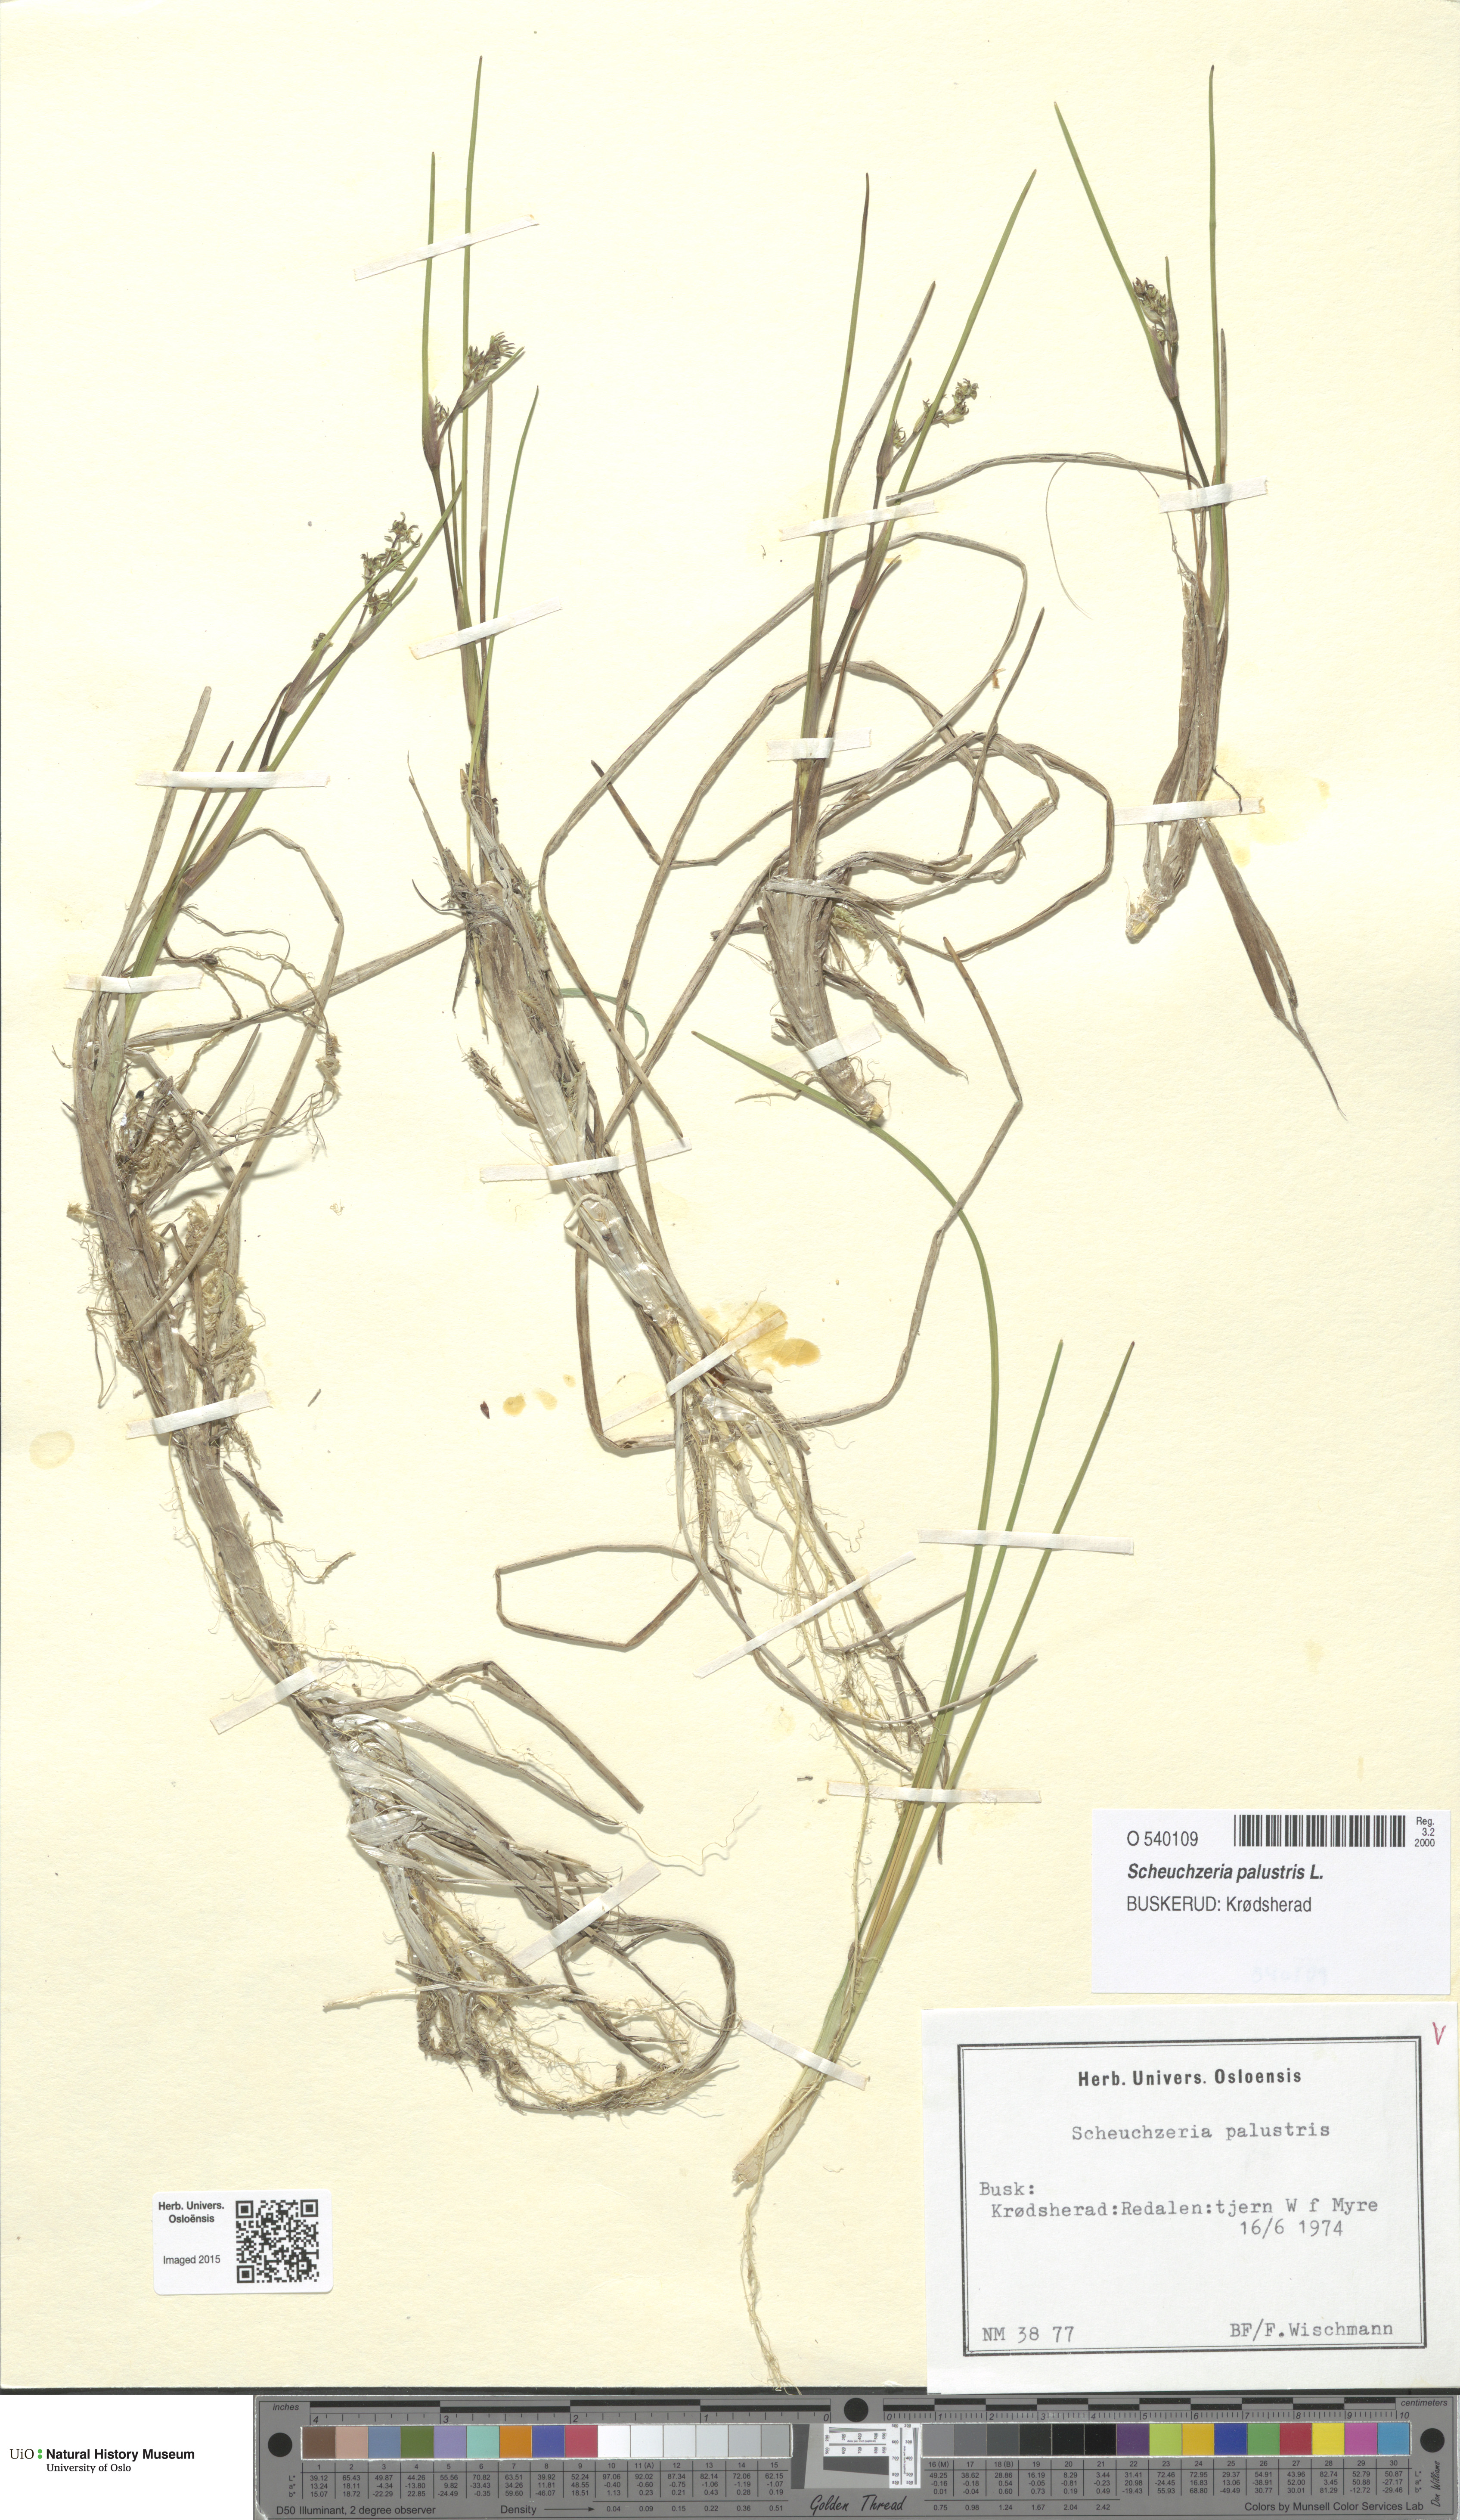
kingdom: Plantae
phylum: Tracheophyta
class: Liliopsida
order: Alismatales
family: Scheuchzeriaceae
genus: Scheuchzeria
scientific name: Scheuchzeria palustris
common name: Rannoch-rush
